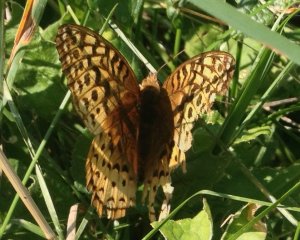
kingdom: Animalia
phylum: Arthropoda
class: Insecta
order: Lepidoptera
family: Nymphalidae
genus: Speyeria
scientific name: Speyeria cybele
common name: Great Spangled Fritillary
